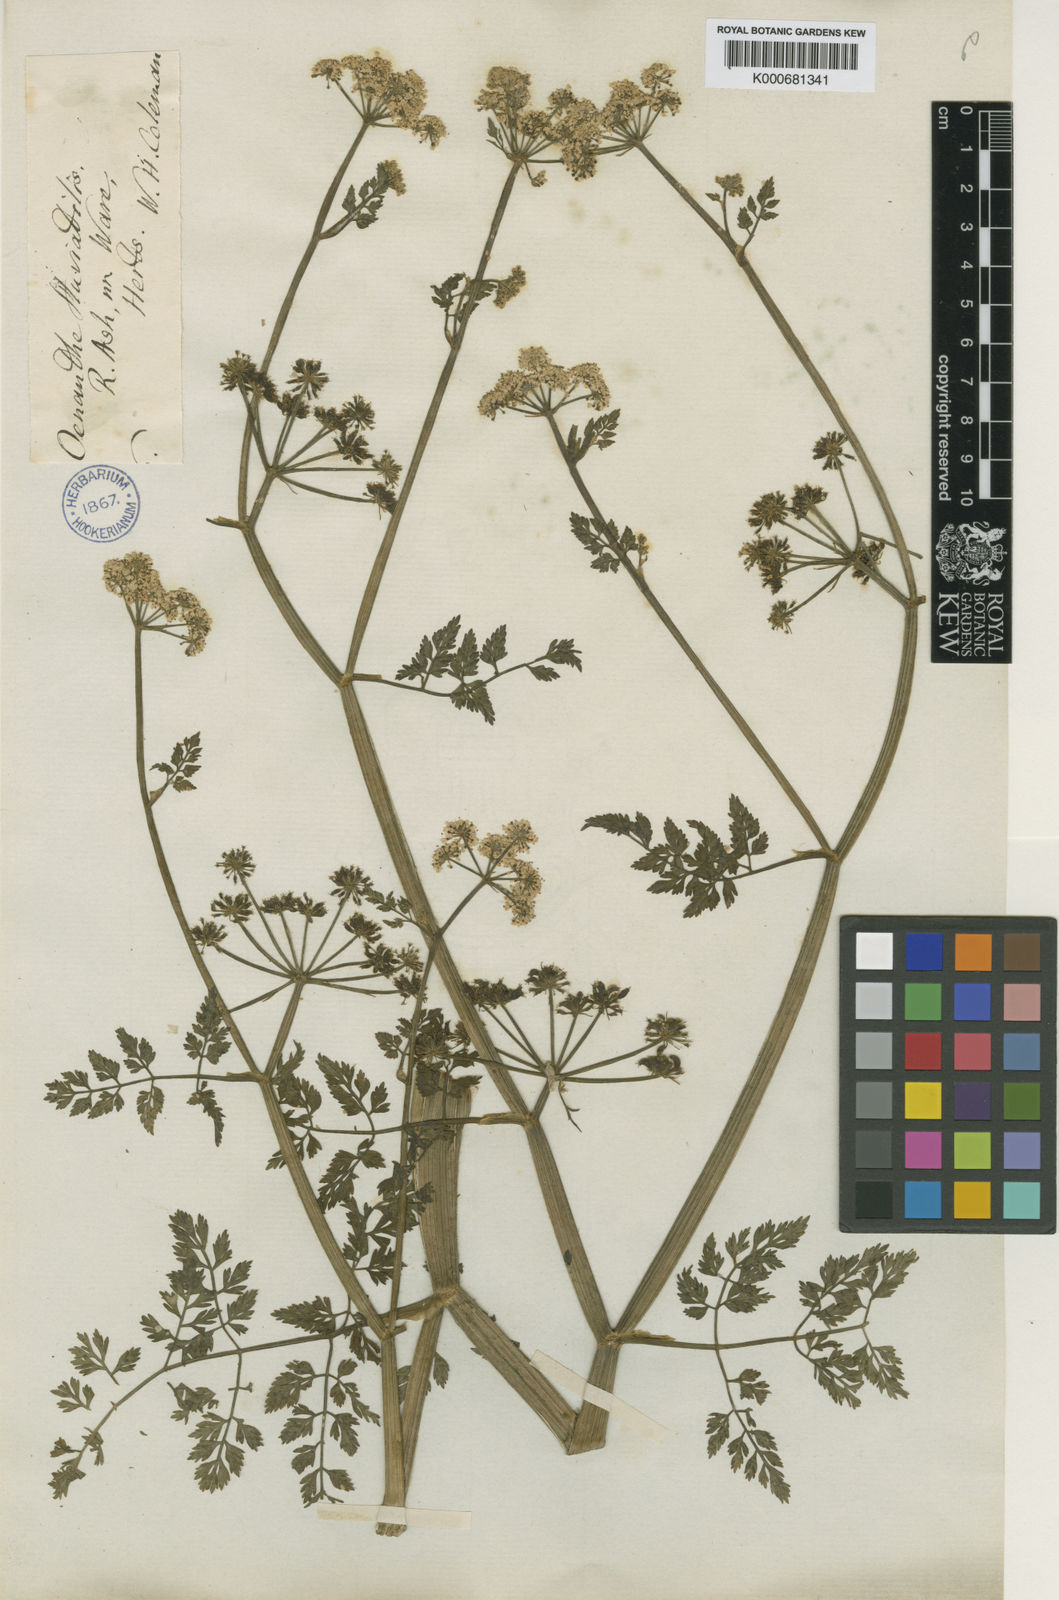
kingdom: Plantae
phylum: Tracheophyta
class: Magnoliopsida
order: Apiales
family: Apiaceae
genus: Oenanthe
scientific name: Oenanthe fluviatilis
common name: River water-dropwort
